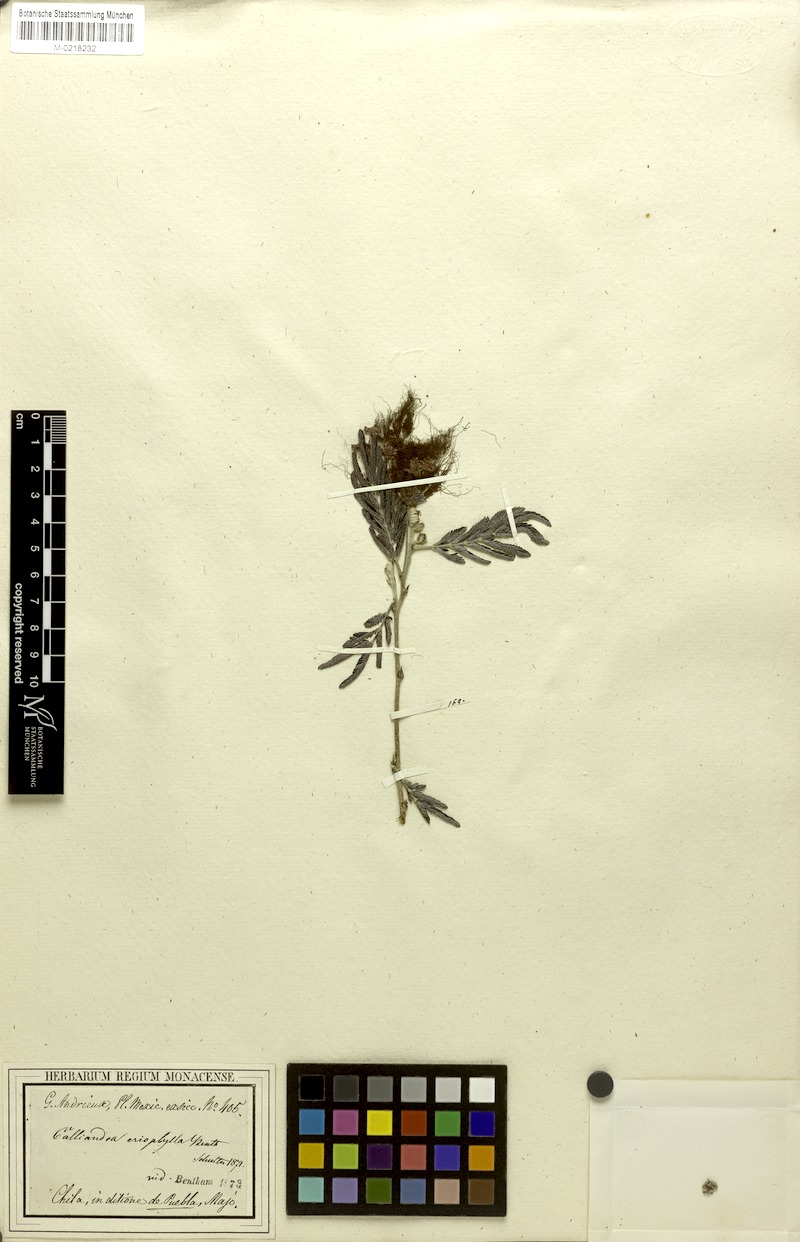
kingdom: Plantae
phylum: Tracheophyta
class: Magnoliopsida
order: Fabales
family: Fabaceae
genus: Calliandra
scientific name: Calliandra eriophylla
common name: Fairy-duster
